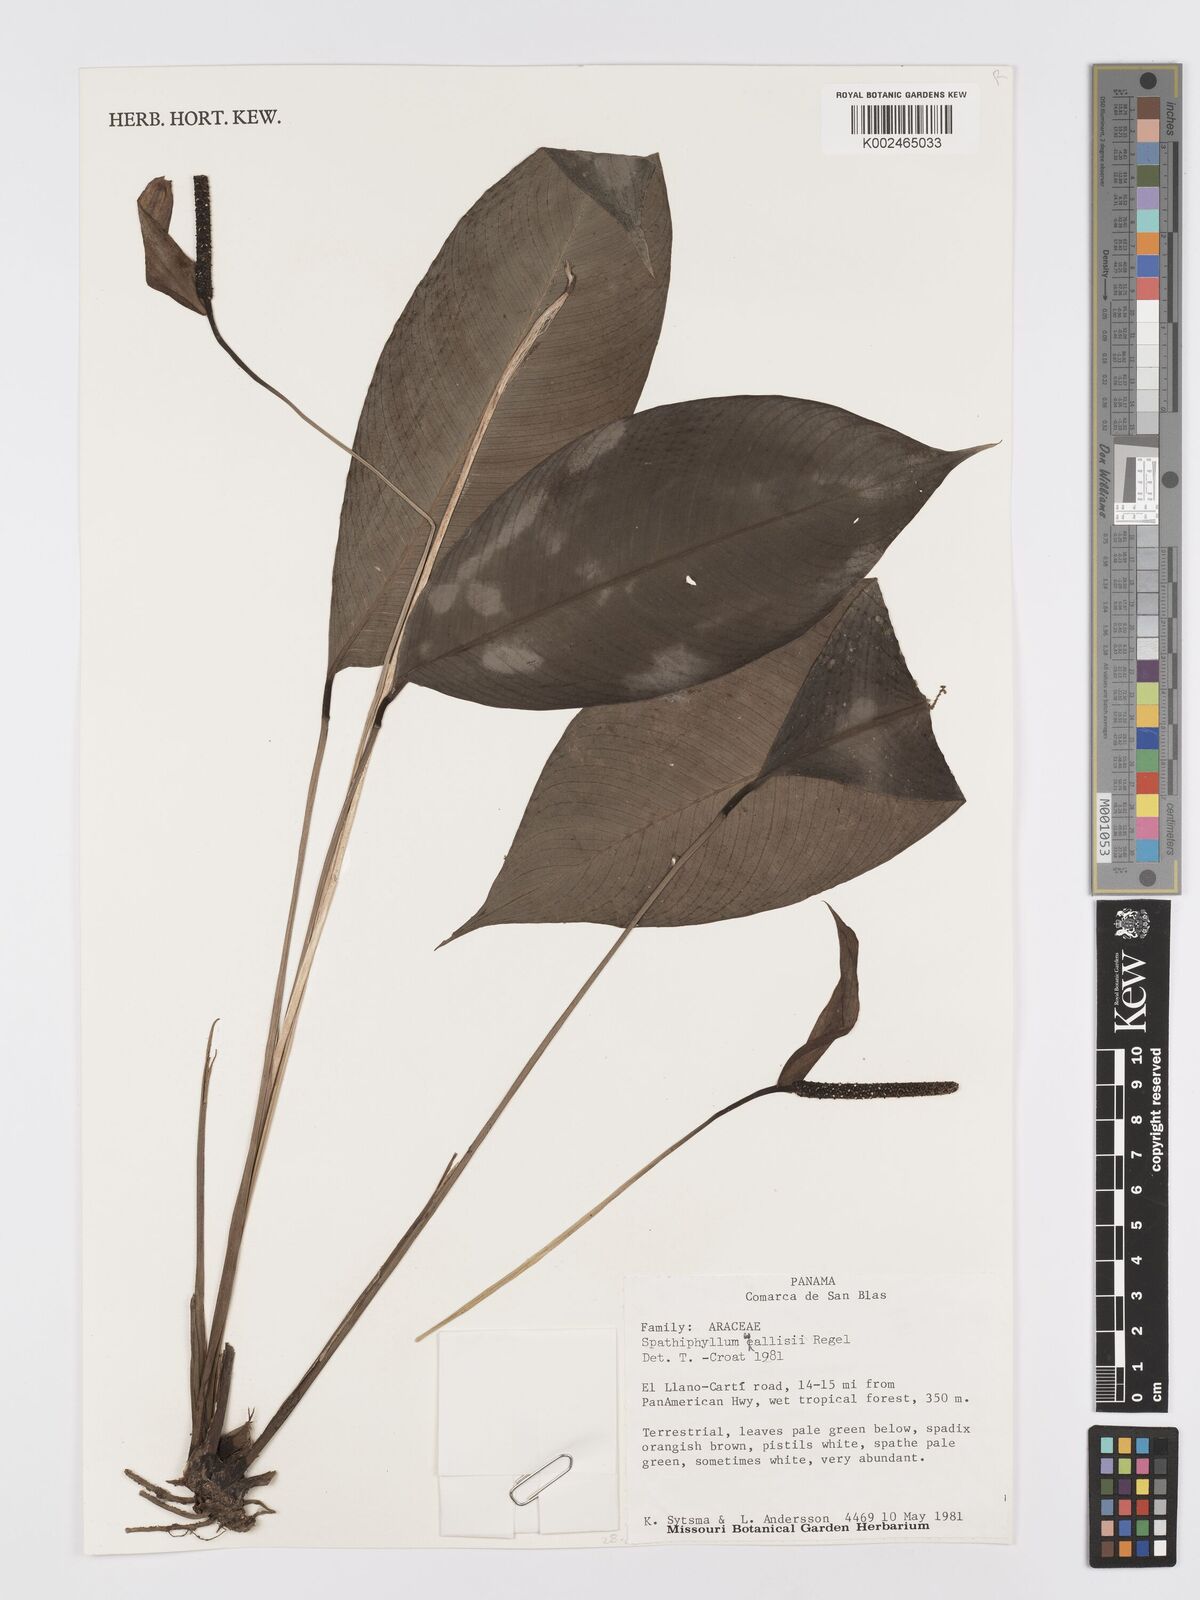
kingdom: Plantae
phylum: Tracheophyta
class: Liliopsida
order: Alismatales
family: Araceae
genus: Spathiphyllum
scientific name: Spathiphyllum wallisii
